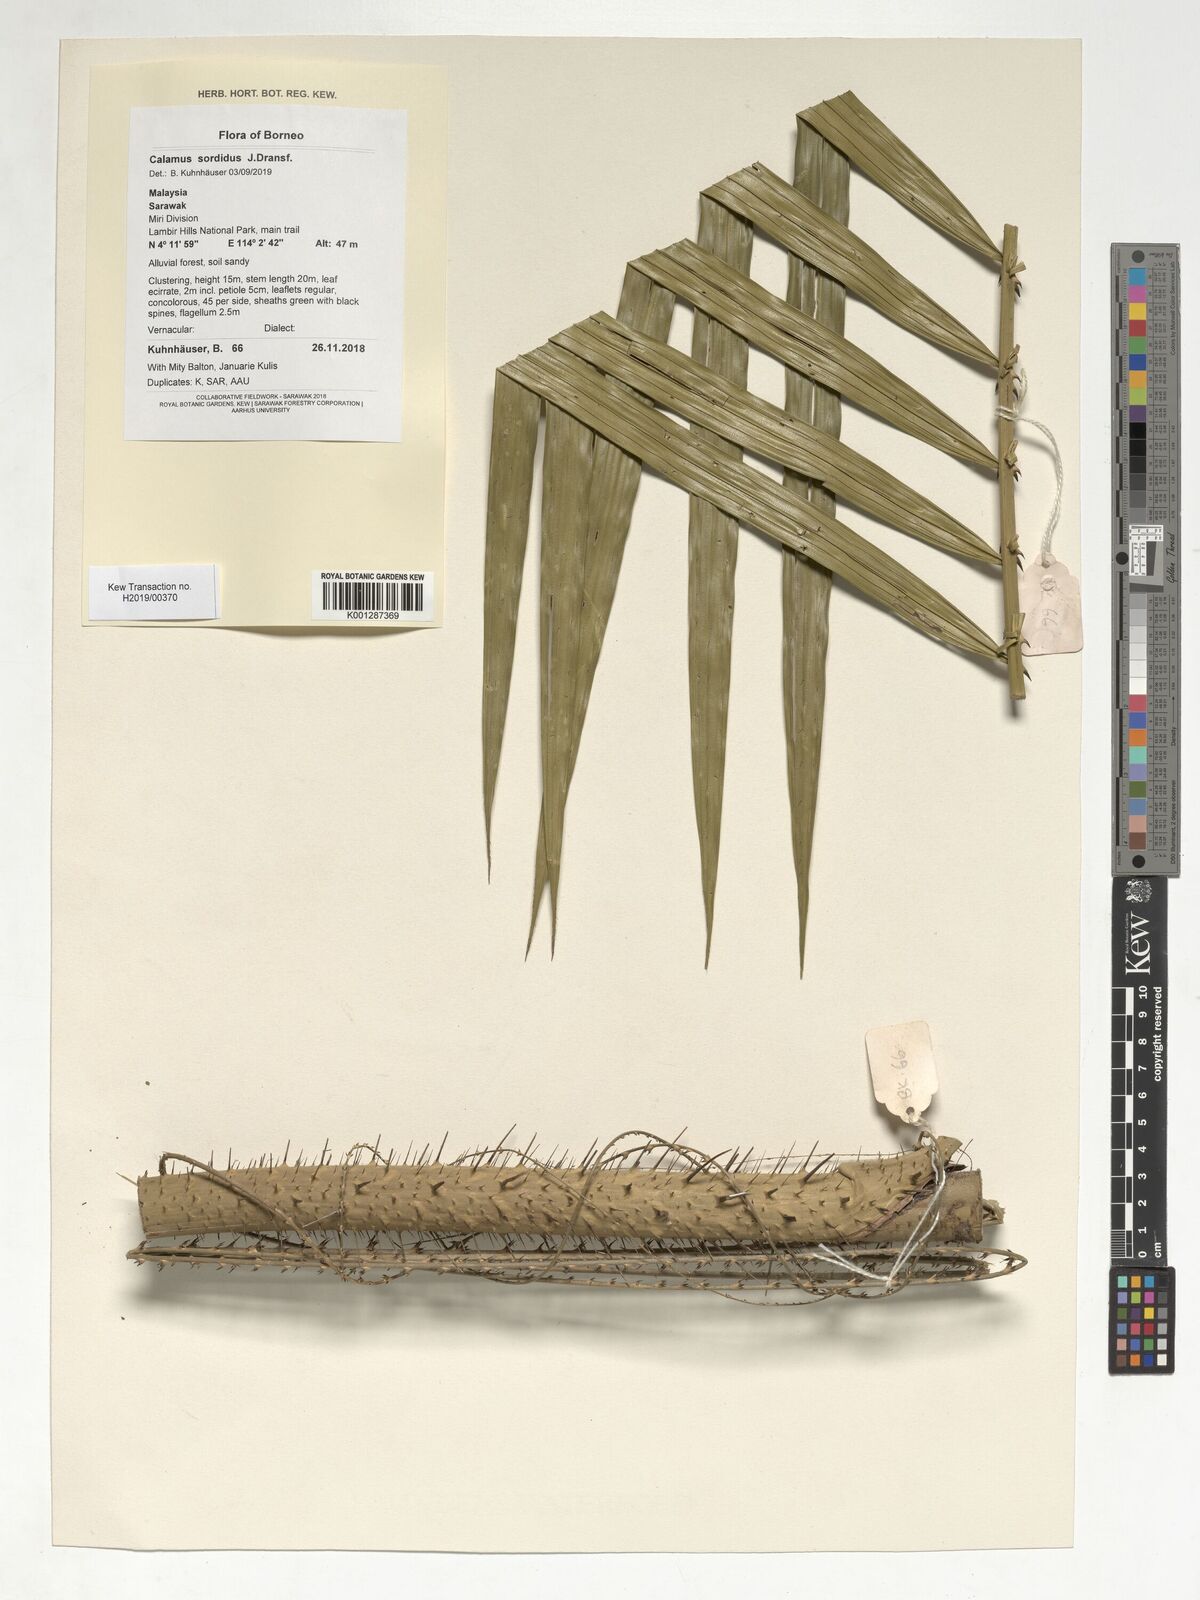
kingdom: Plantae
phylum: Tracheophyta
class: Liliopsida
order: Arecales
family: Arecaceae
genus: Calamus
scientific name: Calamus sordidus
